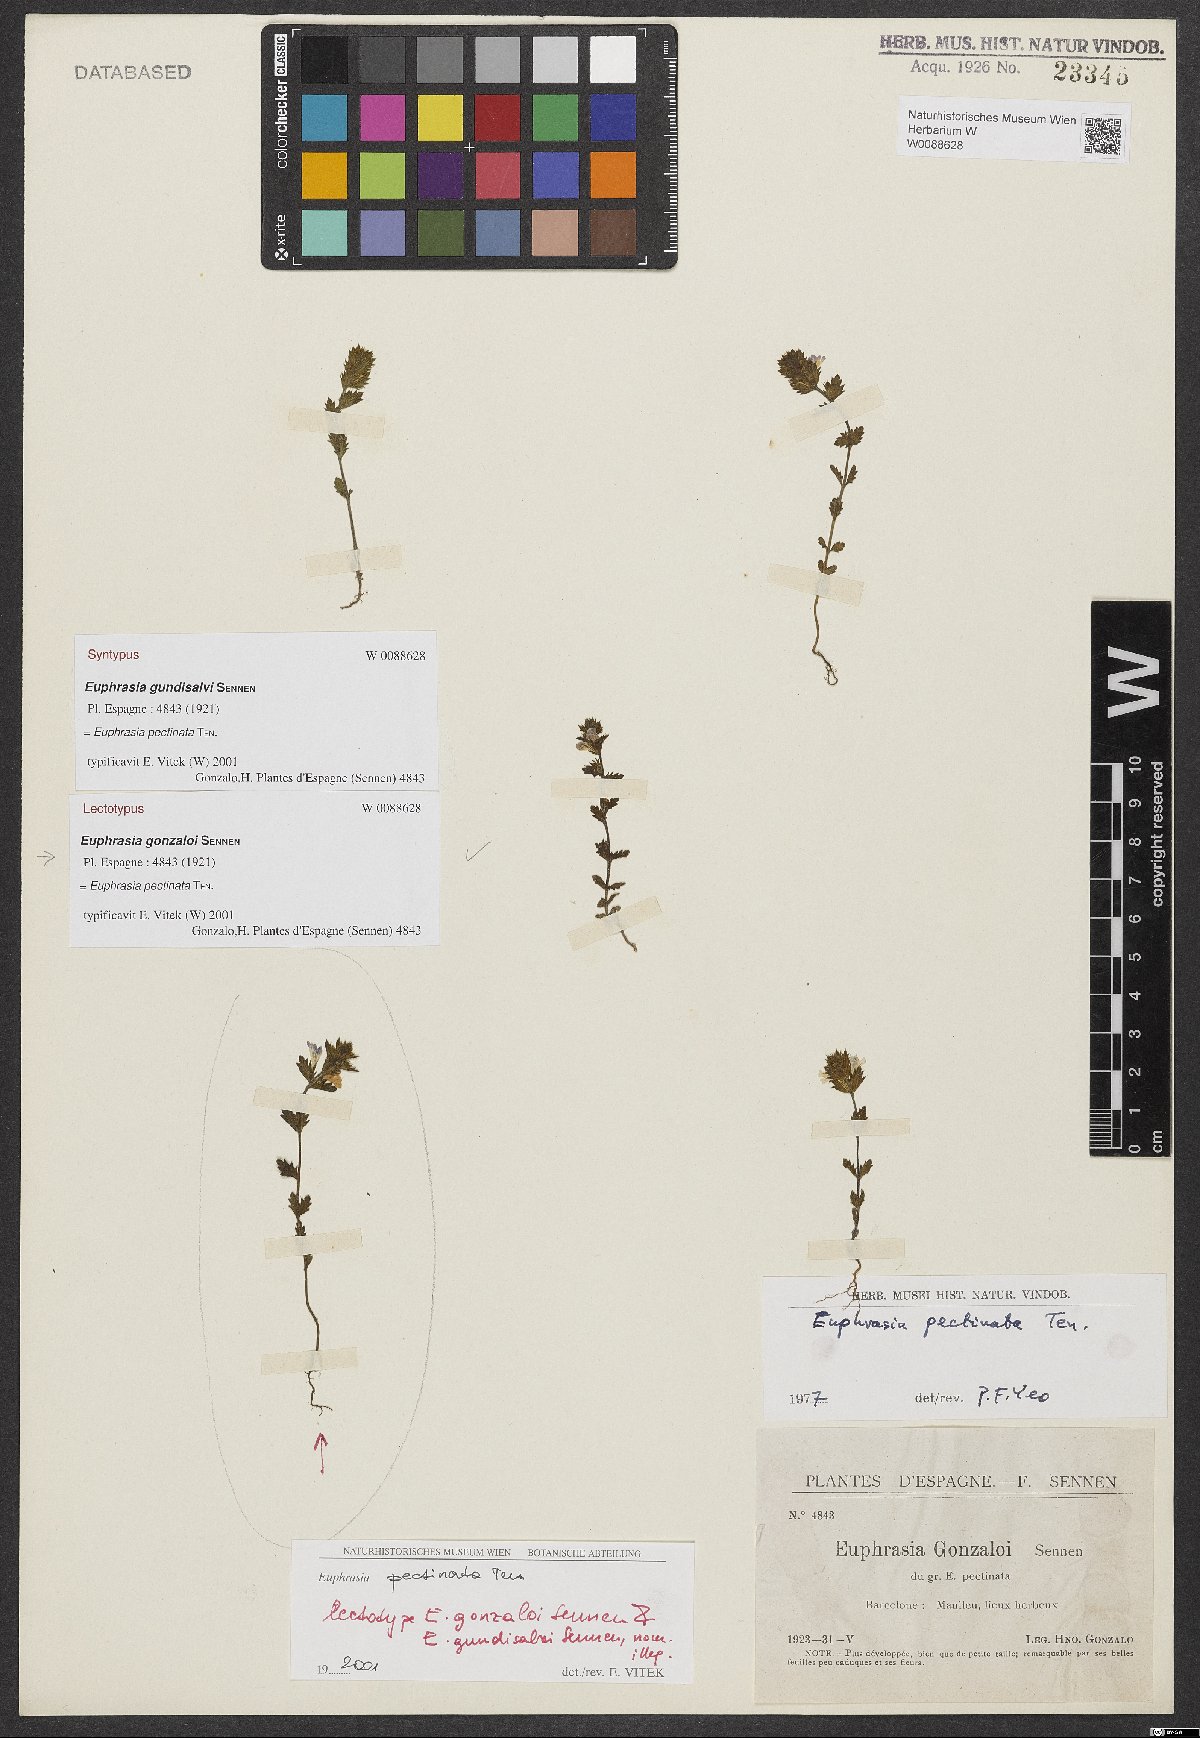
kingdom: Plantae
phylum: Tracheophyta
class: Magnoliopsida
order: Lamiales
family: Orobanchaceae
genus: Euphrasia
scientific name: Euphrasia pectinata
